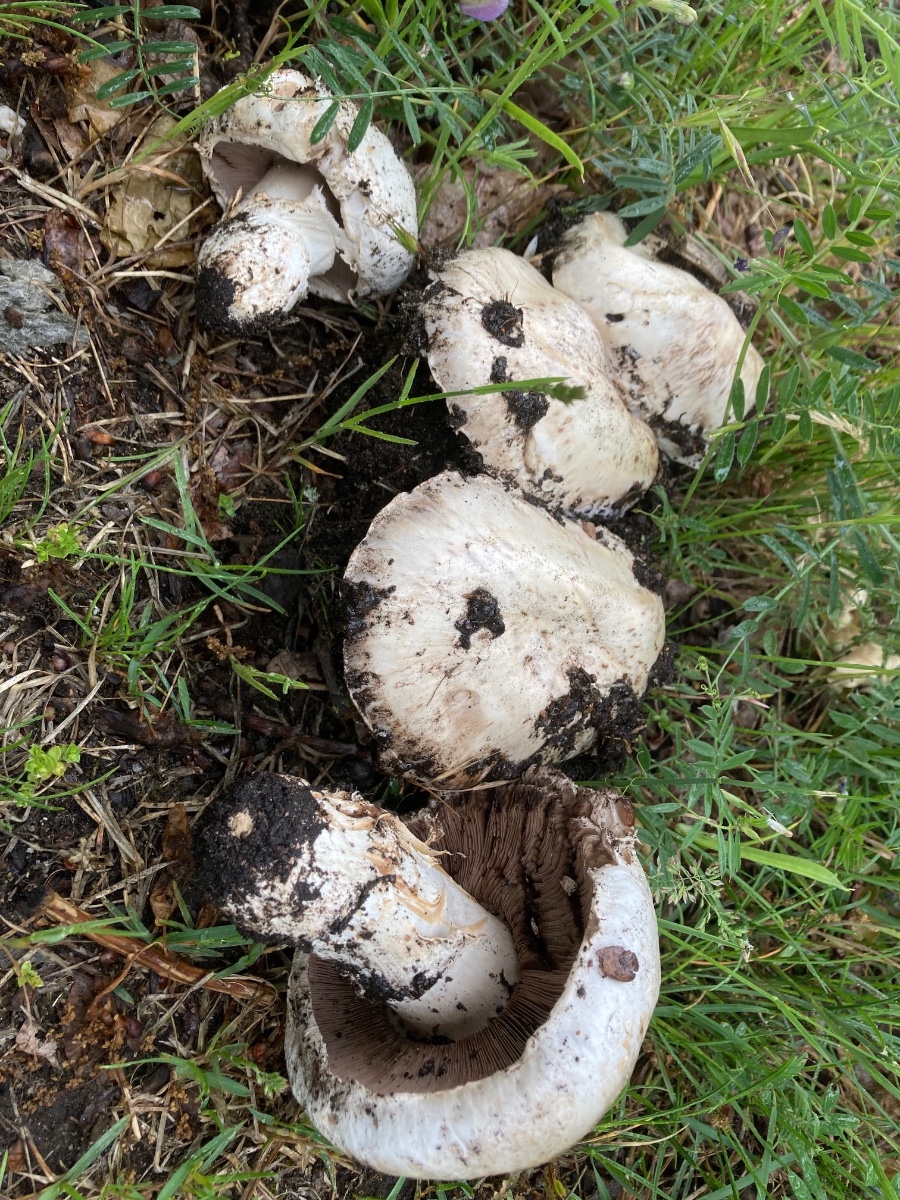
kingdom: Fungi
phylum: Basidiomycota
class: Agaricomycetes
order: Agaricales
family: Agaricaceae
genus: Agaricus
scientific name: Agaricus bitorquis
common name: vej-champignon
